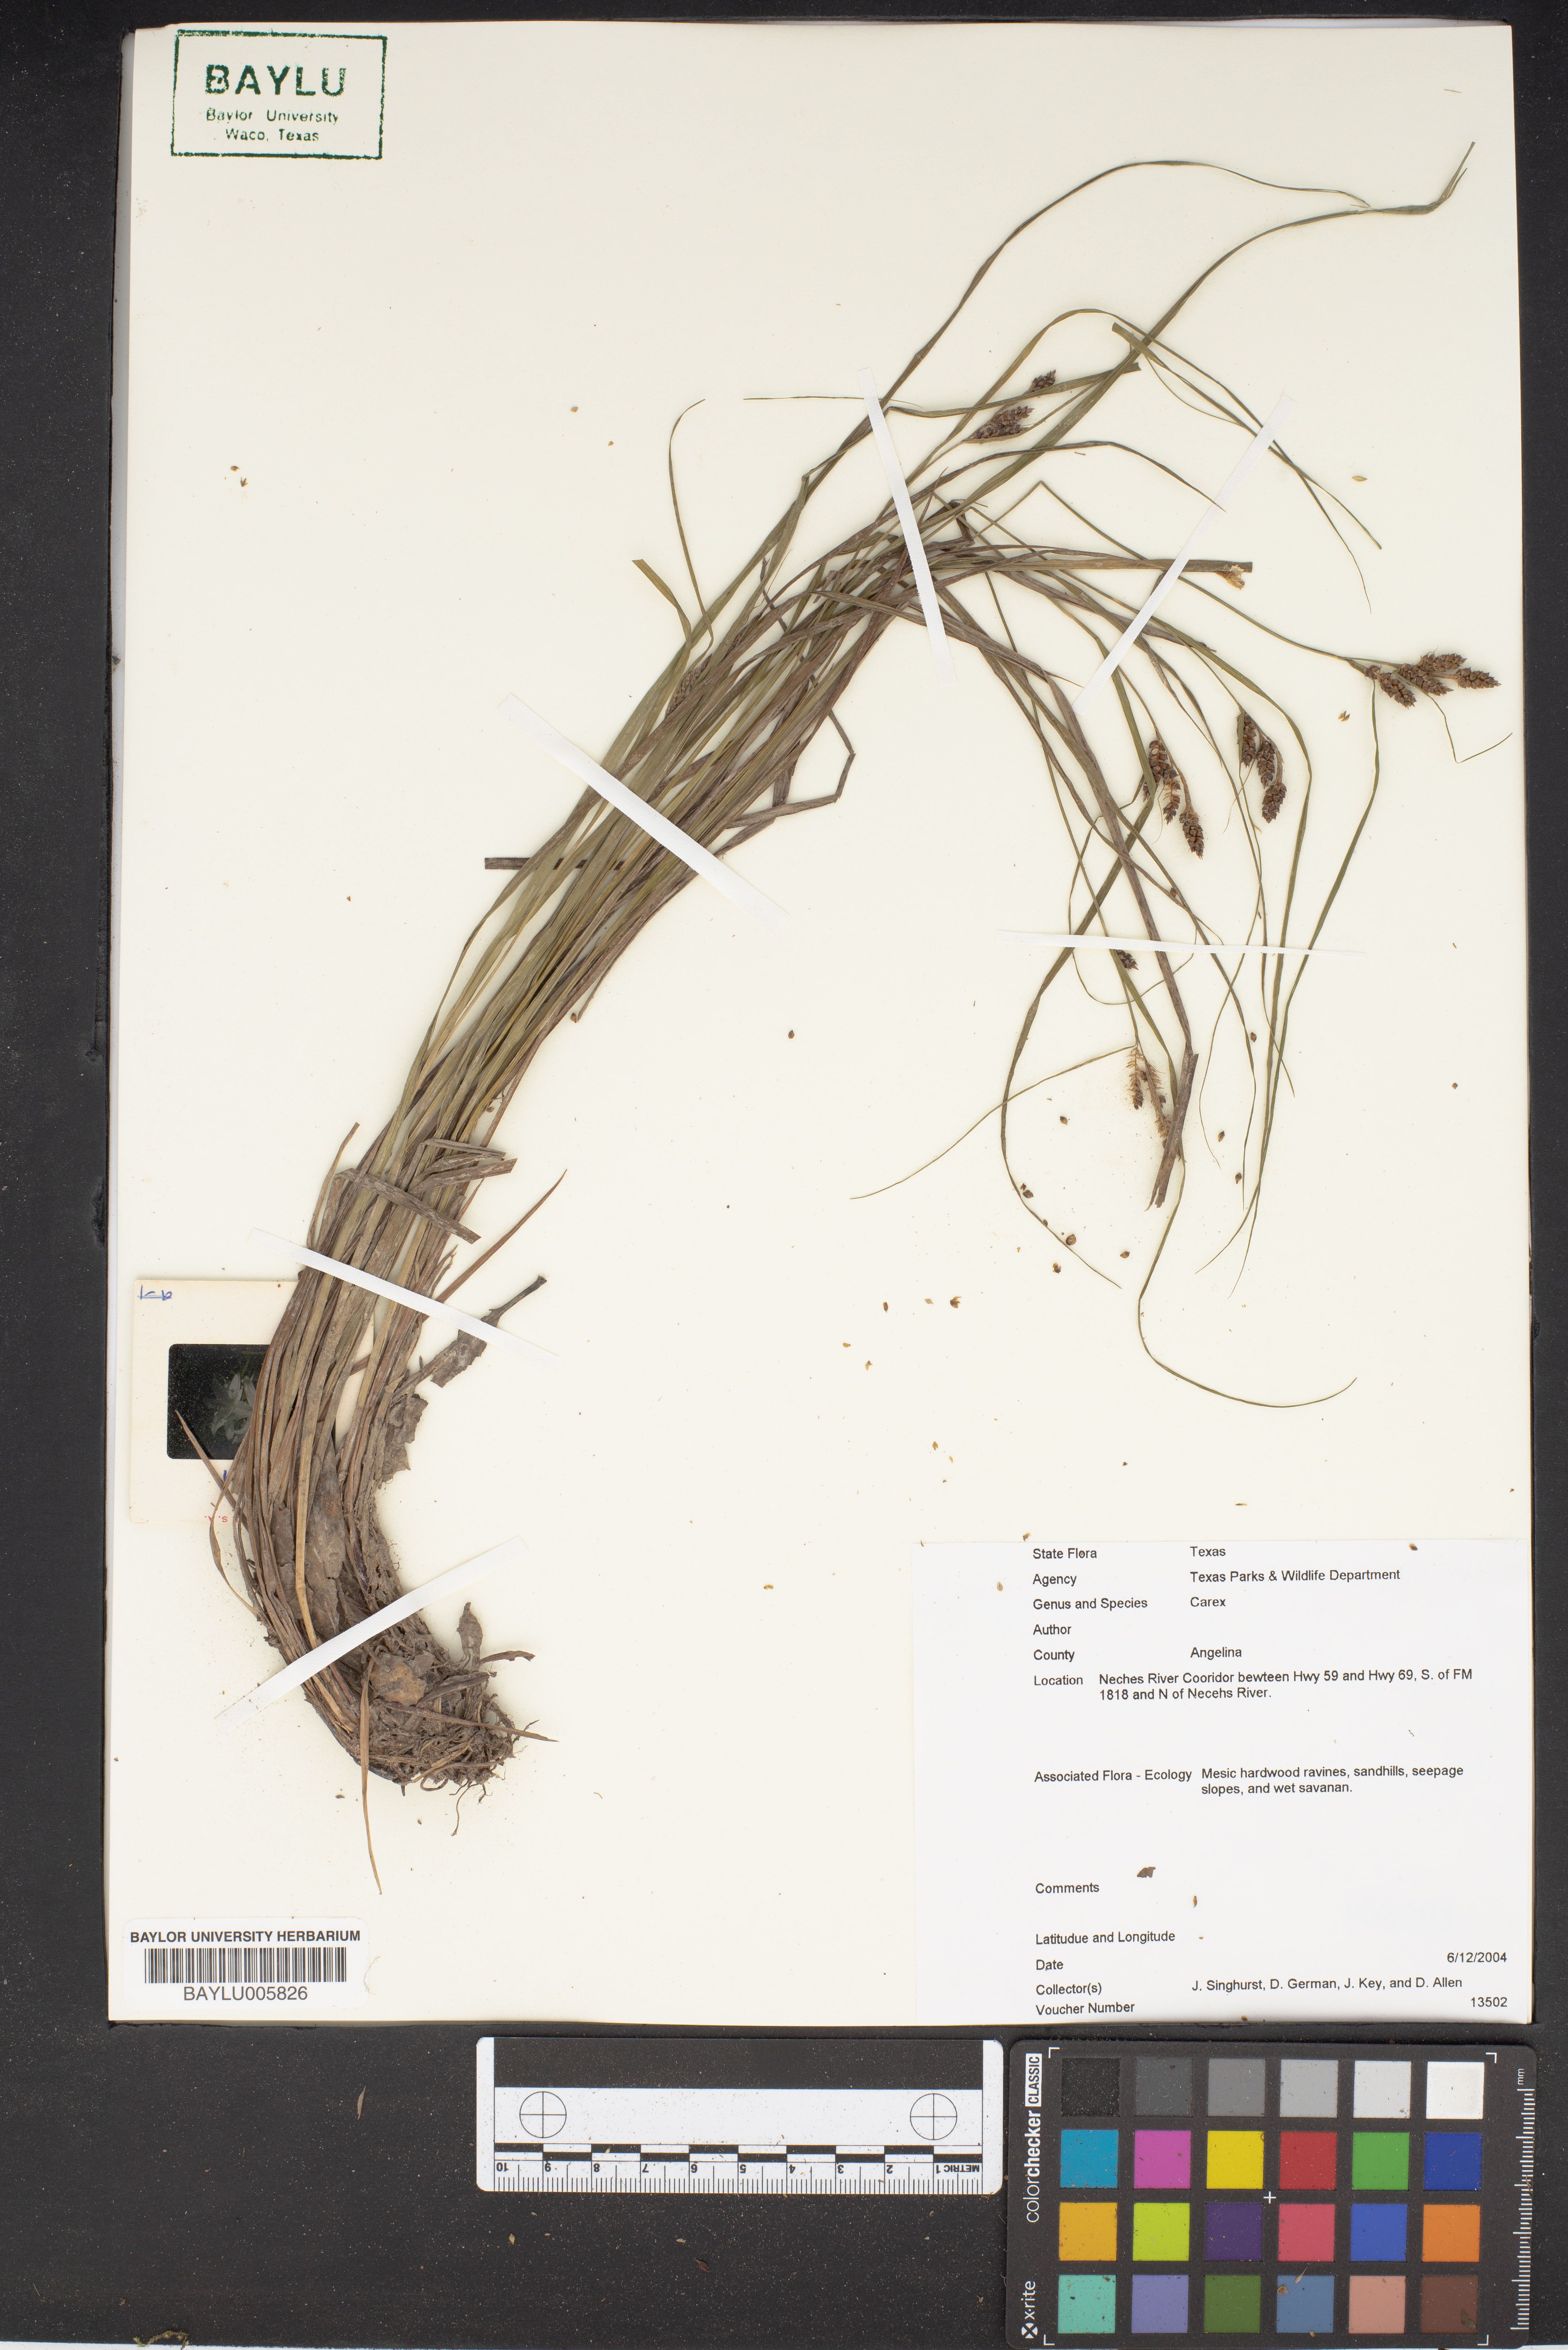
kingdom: Plantae
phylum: Tracheophyta
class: Liliopsida
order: Poales
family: Cyperaceae
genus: Carex
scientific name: Carex
